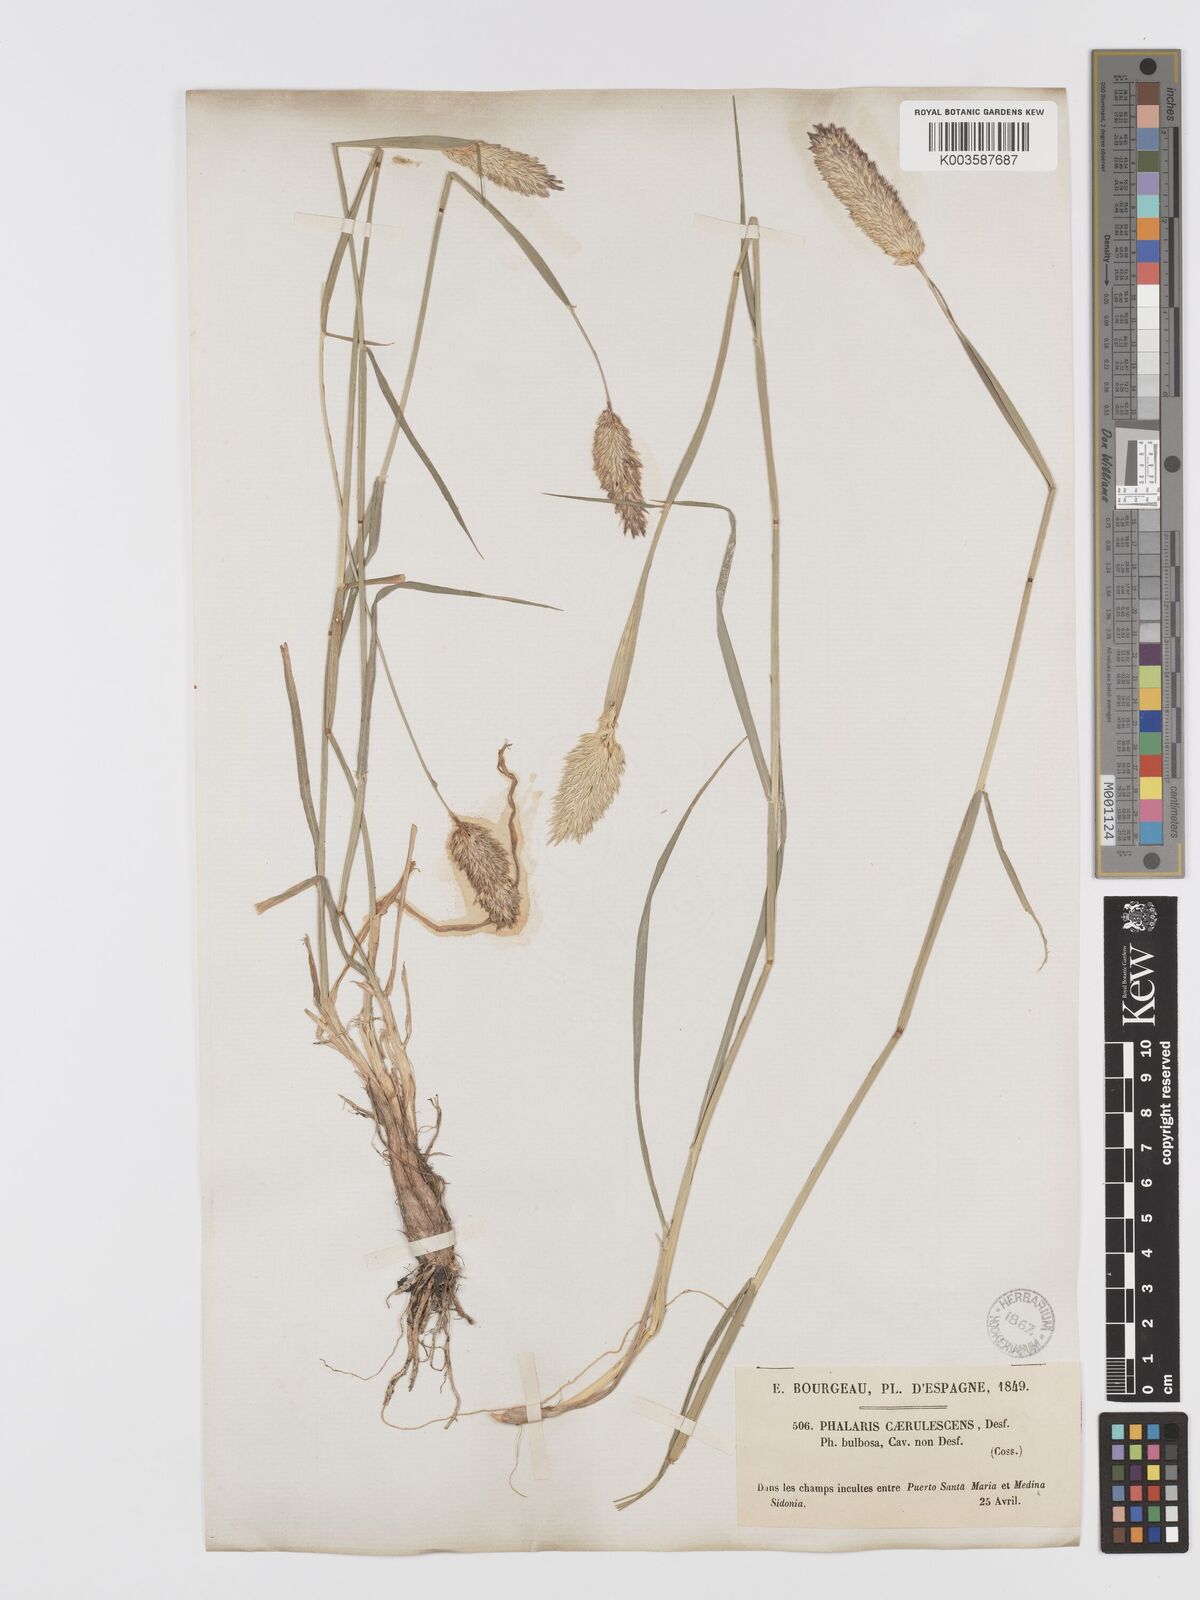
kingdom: Plantae
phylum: Tracheophyta
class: Liliopsida
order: Poales
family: Poaceae
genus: Phalaris
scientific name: Phalaris coerulescens
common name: Sunolgrass
